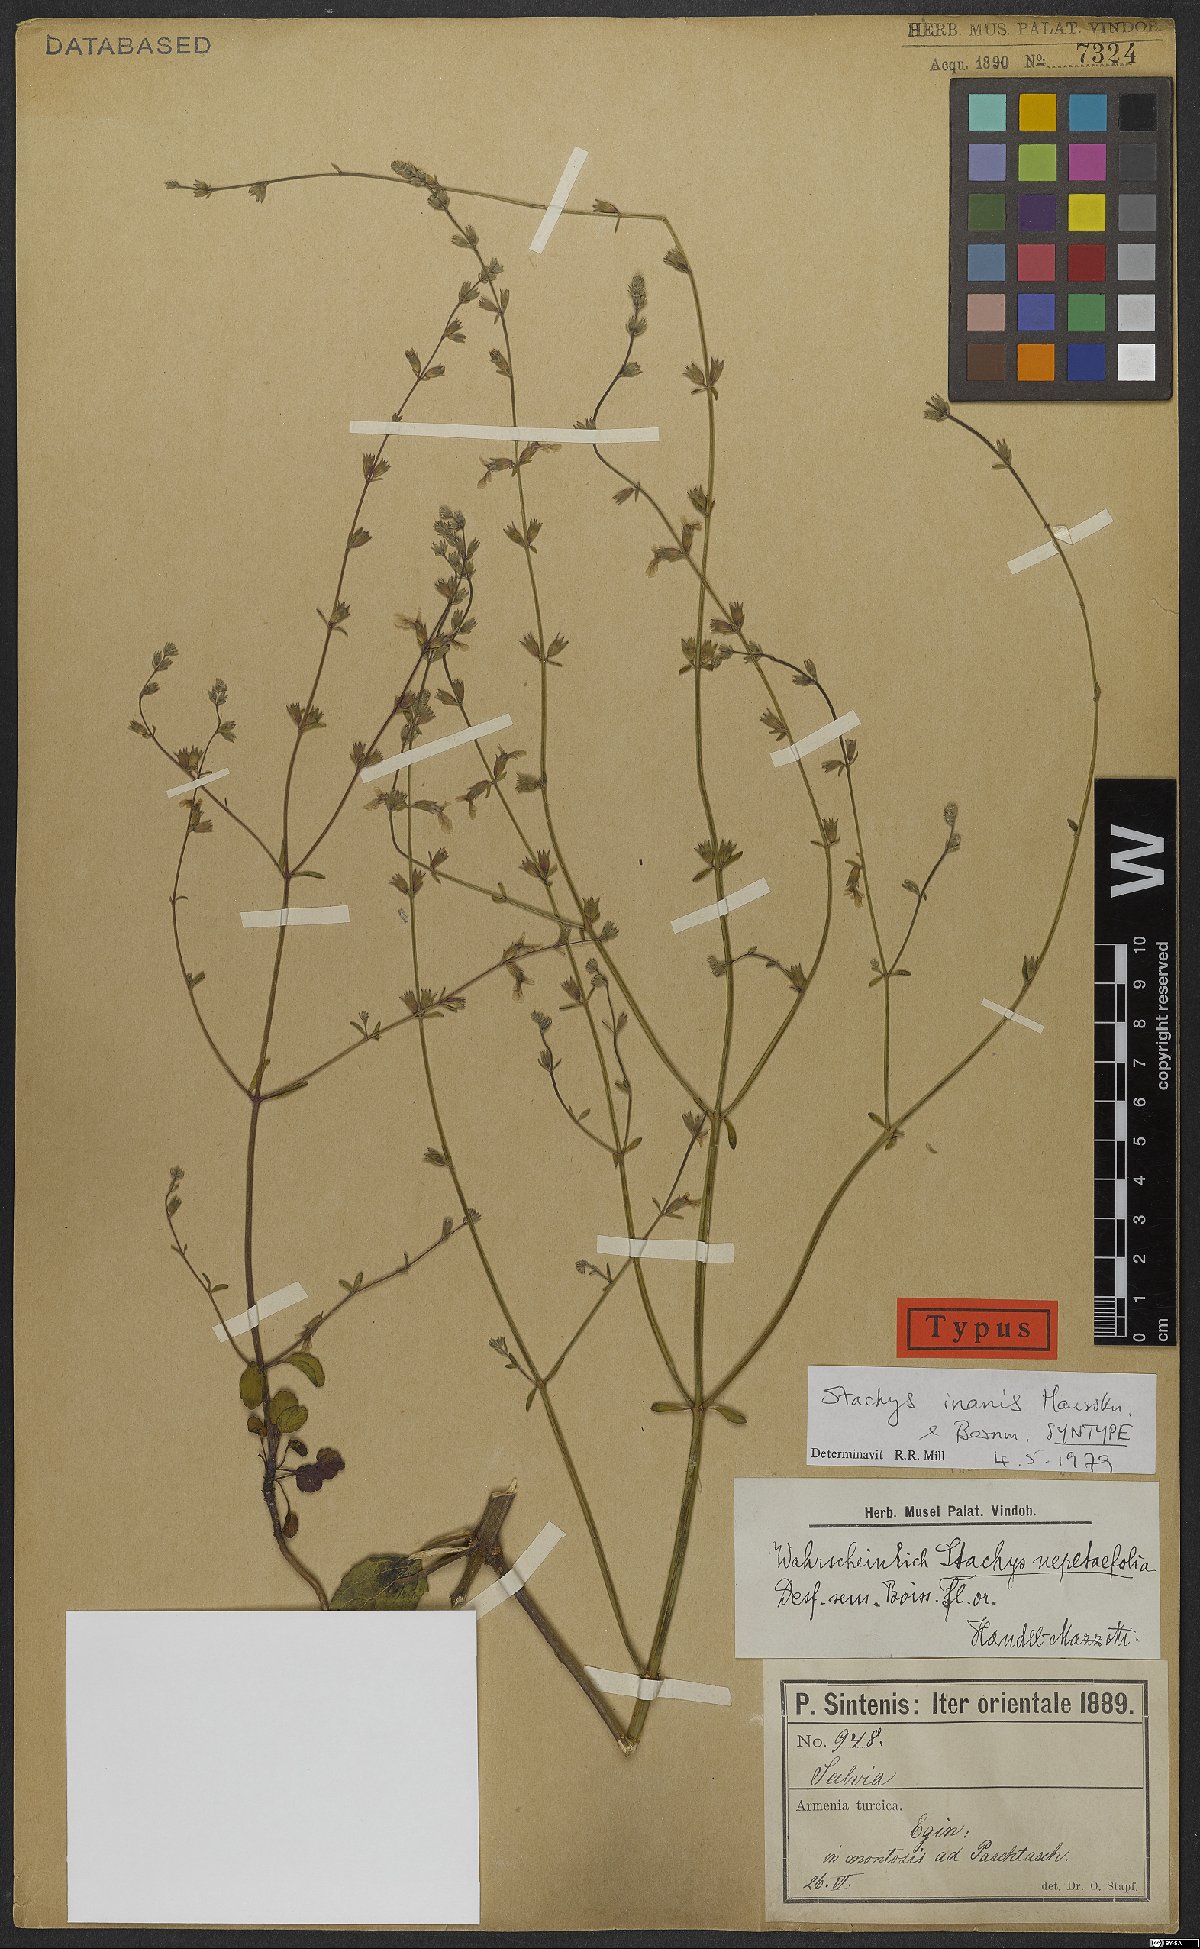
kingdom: Plantae
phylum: Tracheophyta
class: Magnoliopsida
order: Lamiales
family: Lamiaceae
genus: Stachys
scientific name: Stachys inanis
